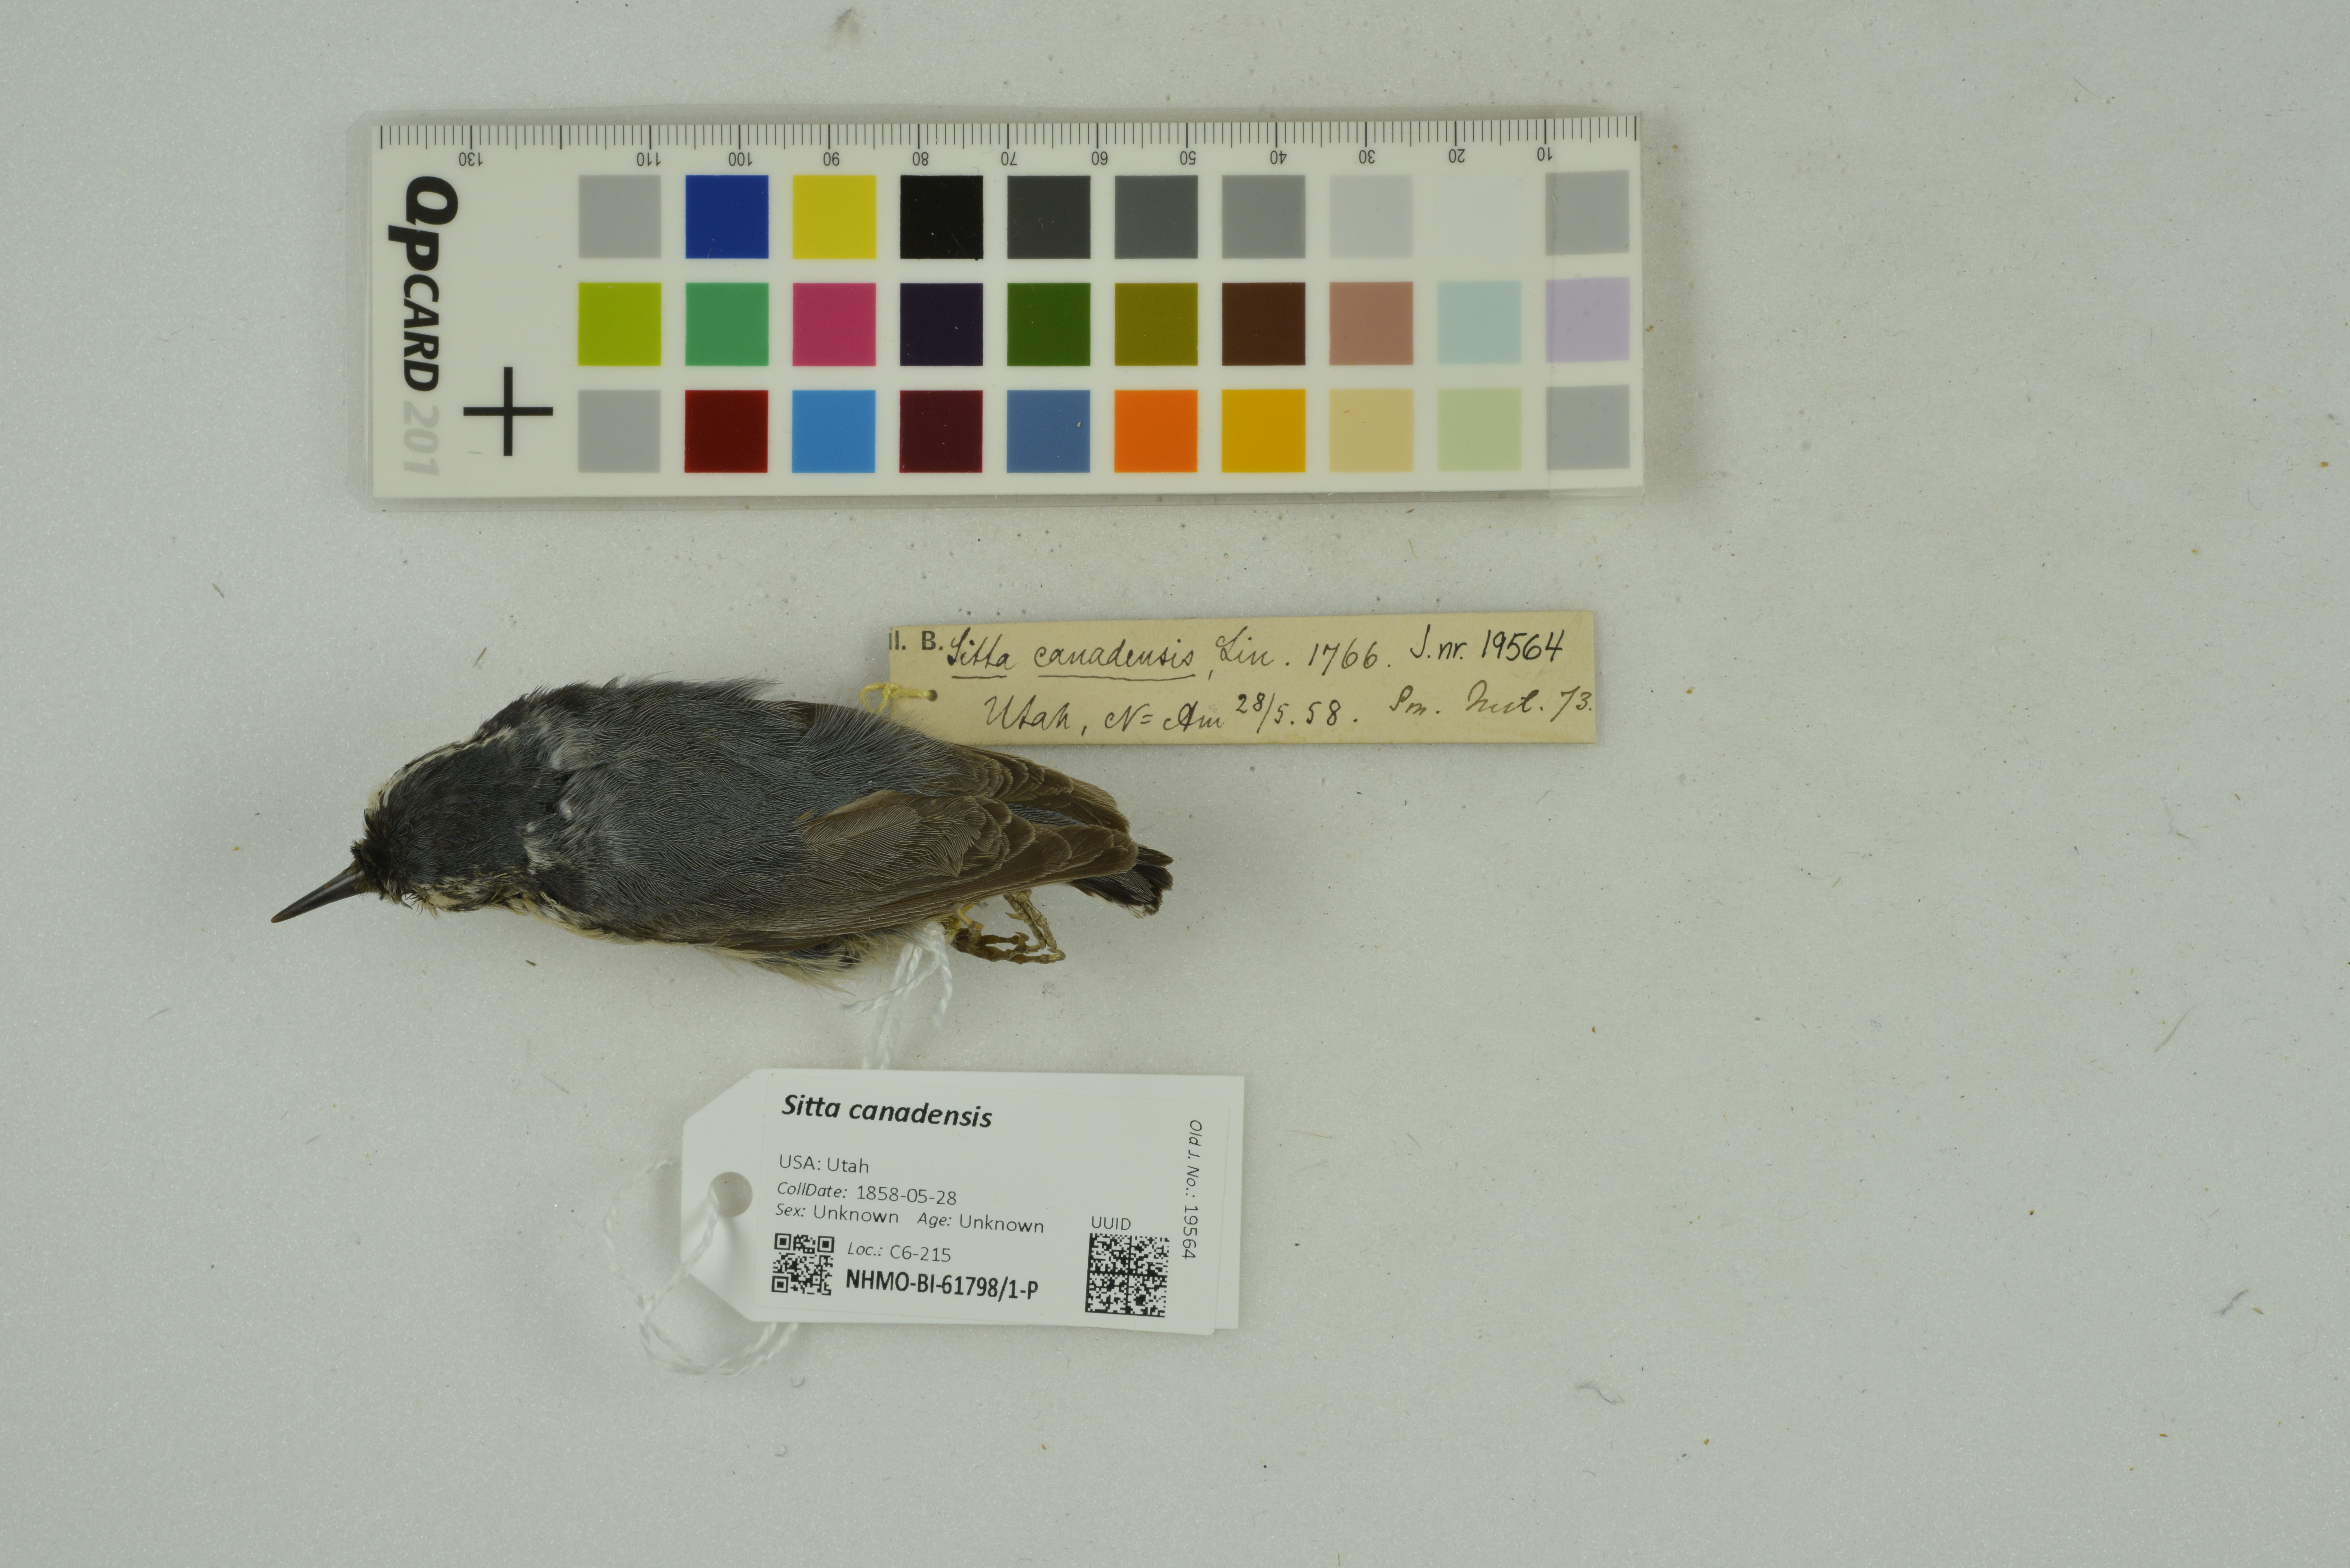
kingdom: Animalia
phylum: Chordata
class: Aves
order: Passeriformes
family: Sittidae
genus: Sitta
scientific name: Sitta canadensis
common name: Red-breasted nuthatch
